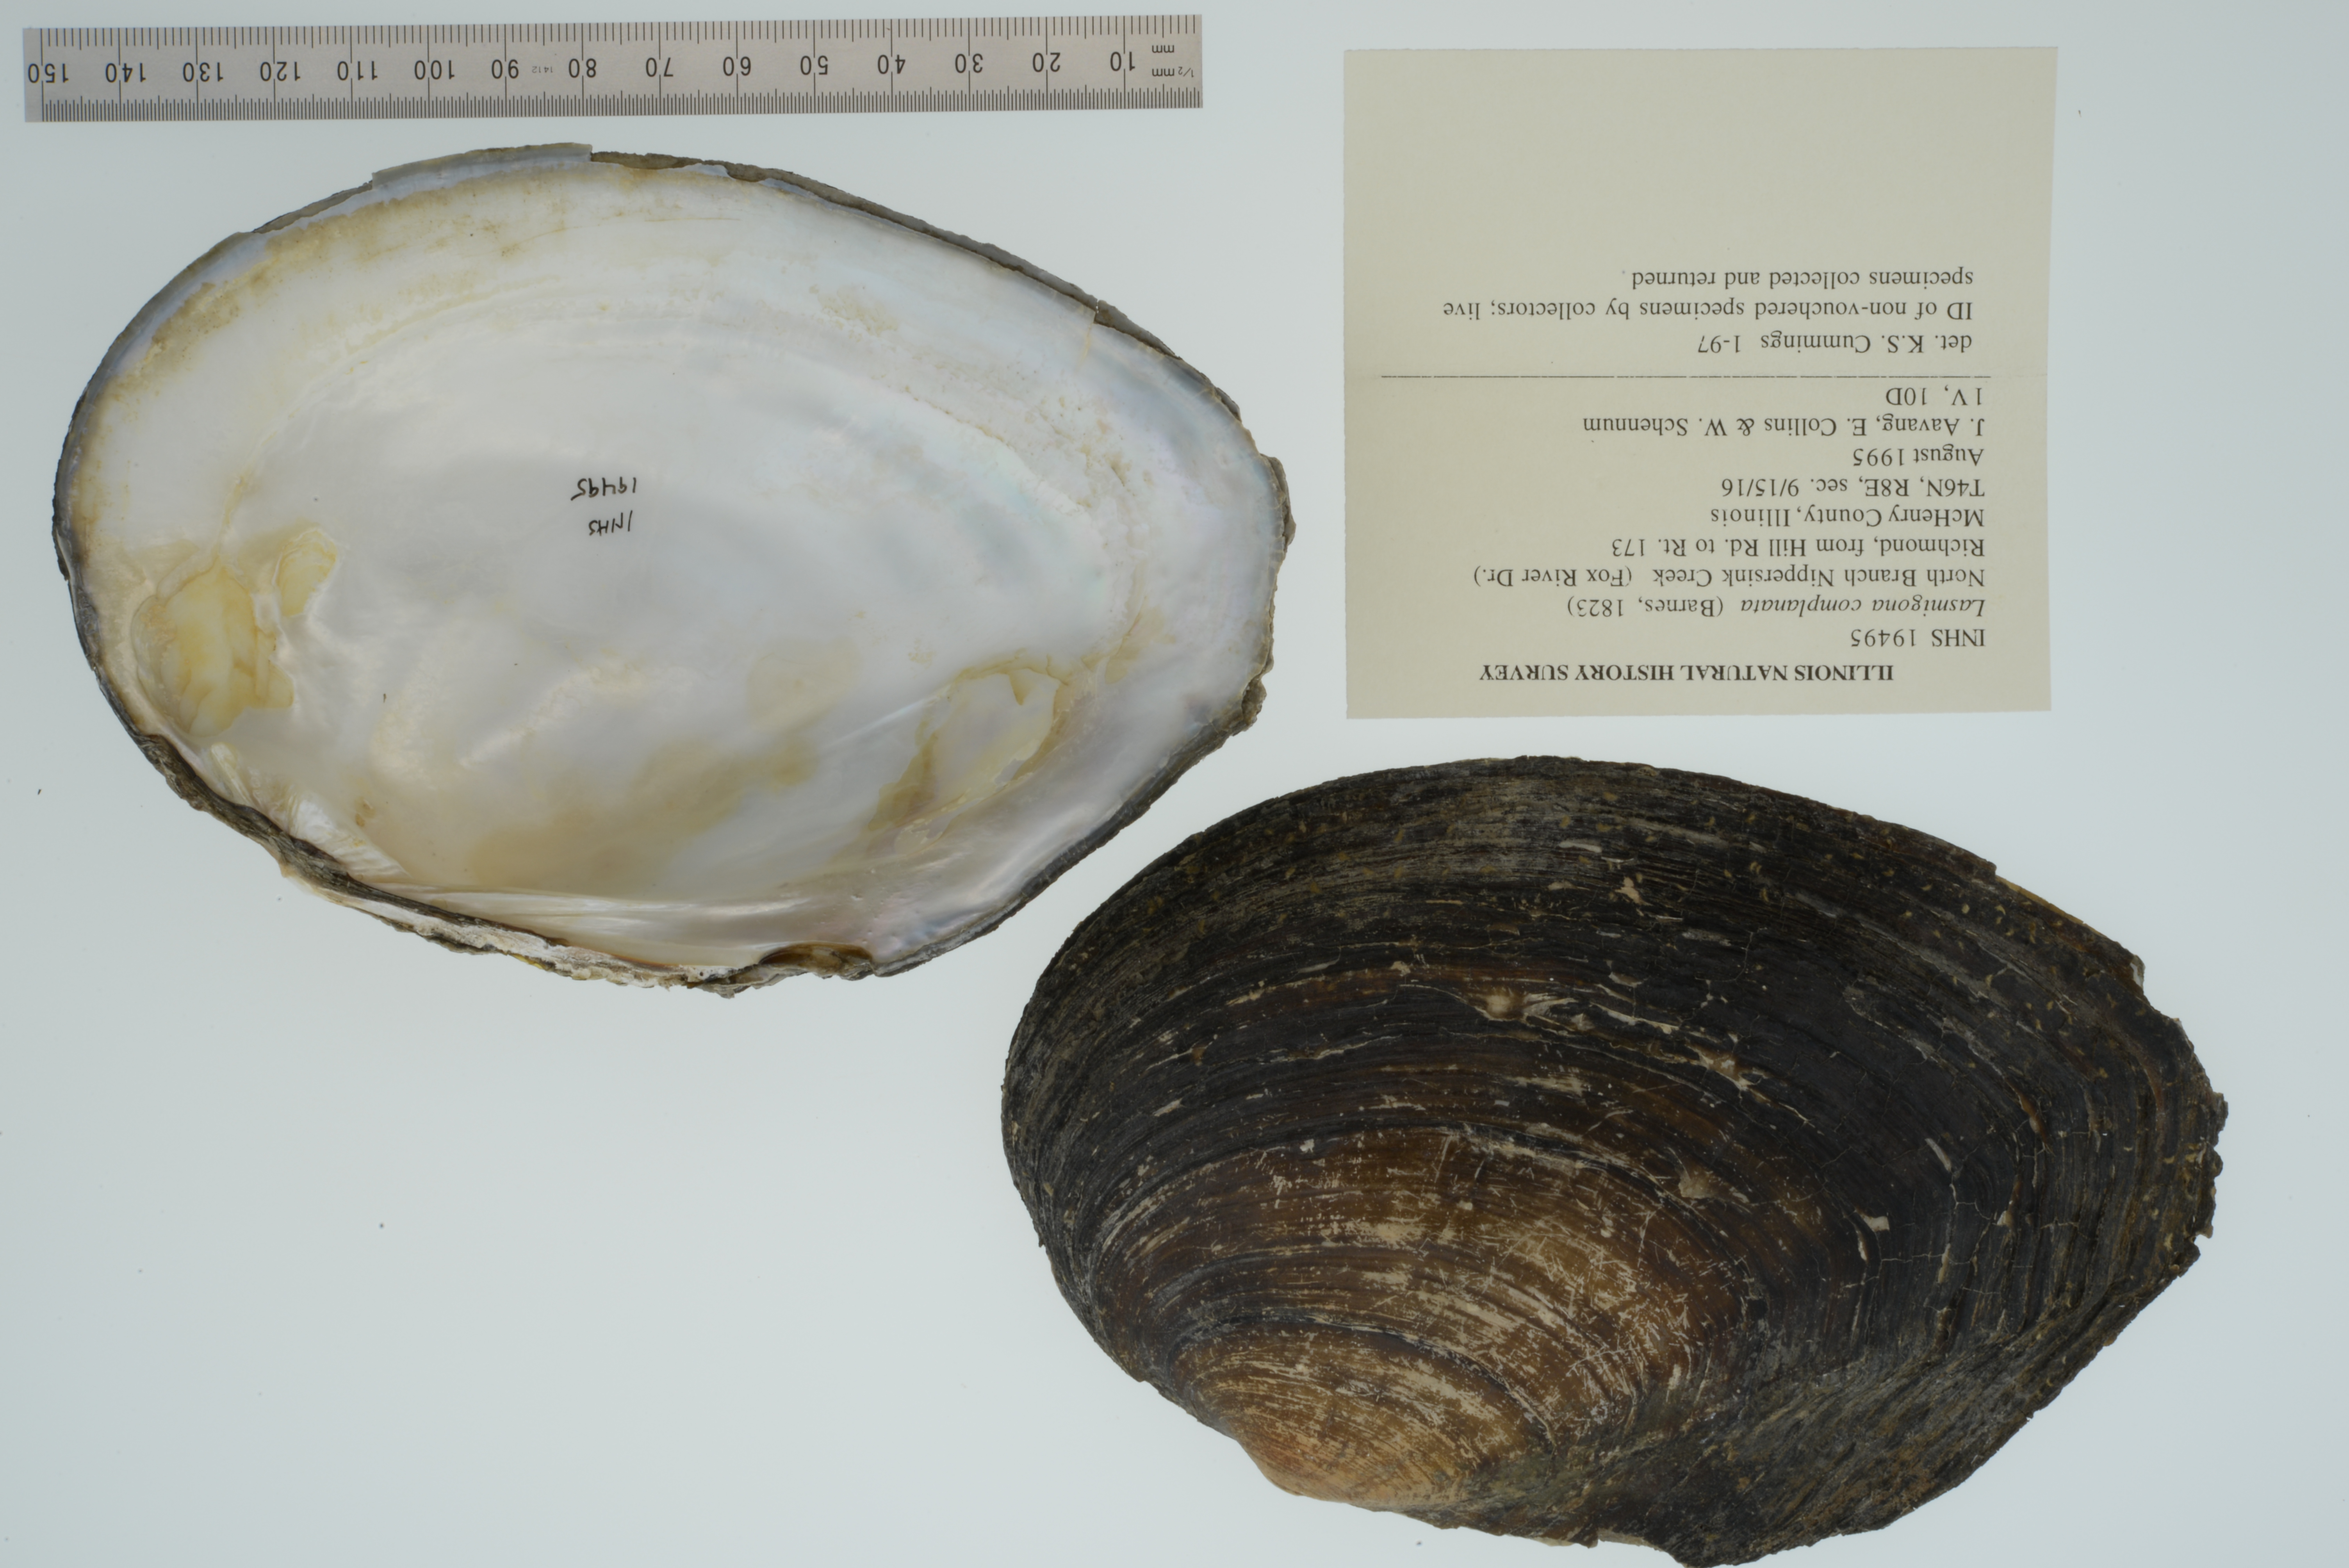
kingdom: Animalia
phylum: Mollusca
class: Bivalvia
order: Unionida
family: Unionidae
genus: Lasmigona
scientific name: Lasmigona complanata
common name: White heelsplitter
